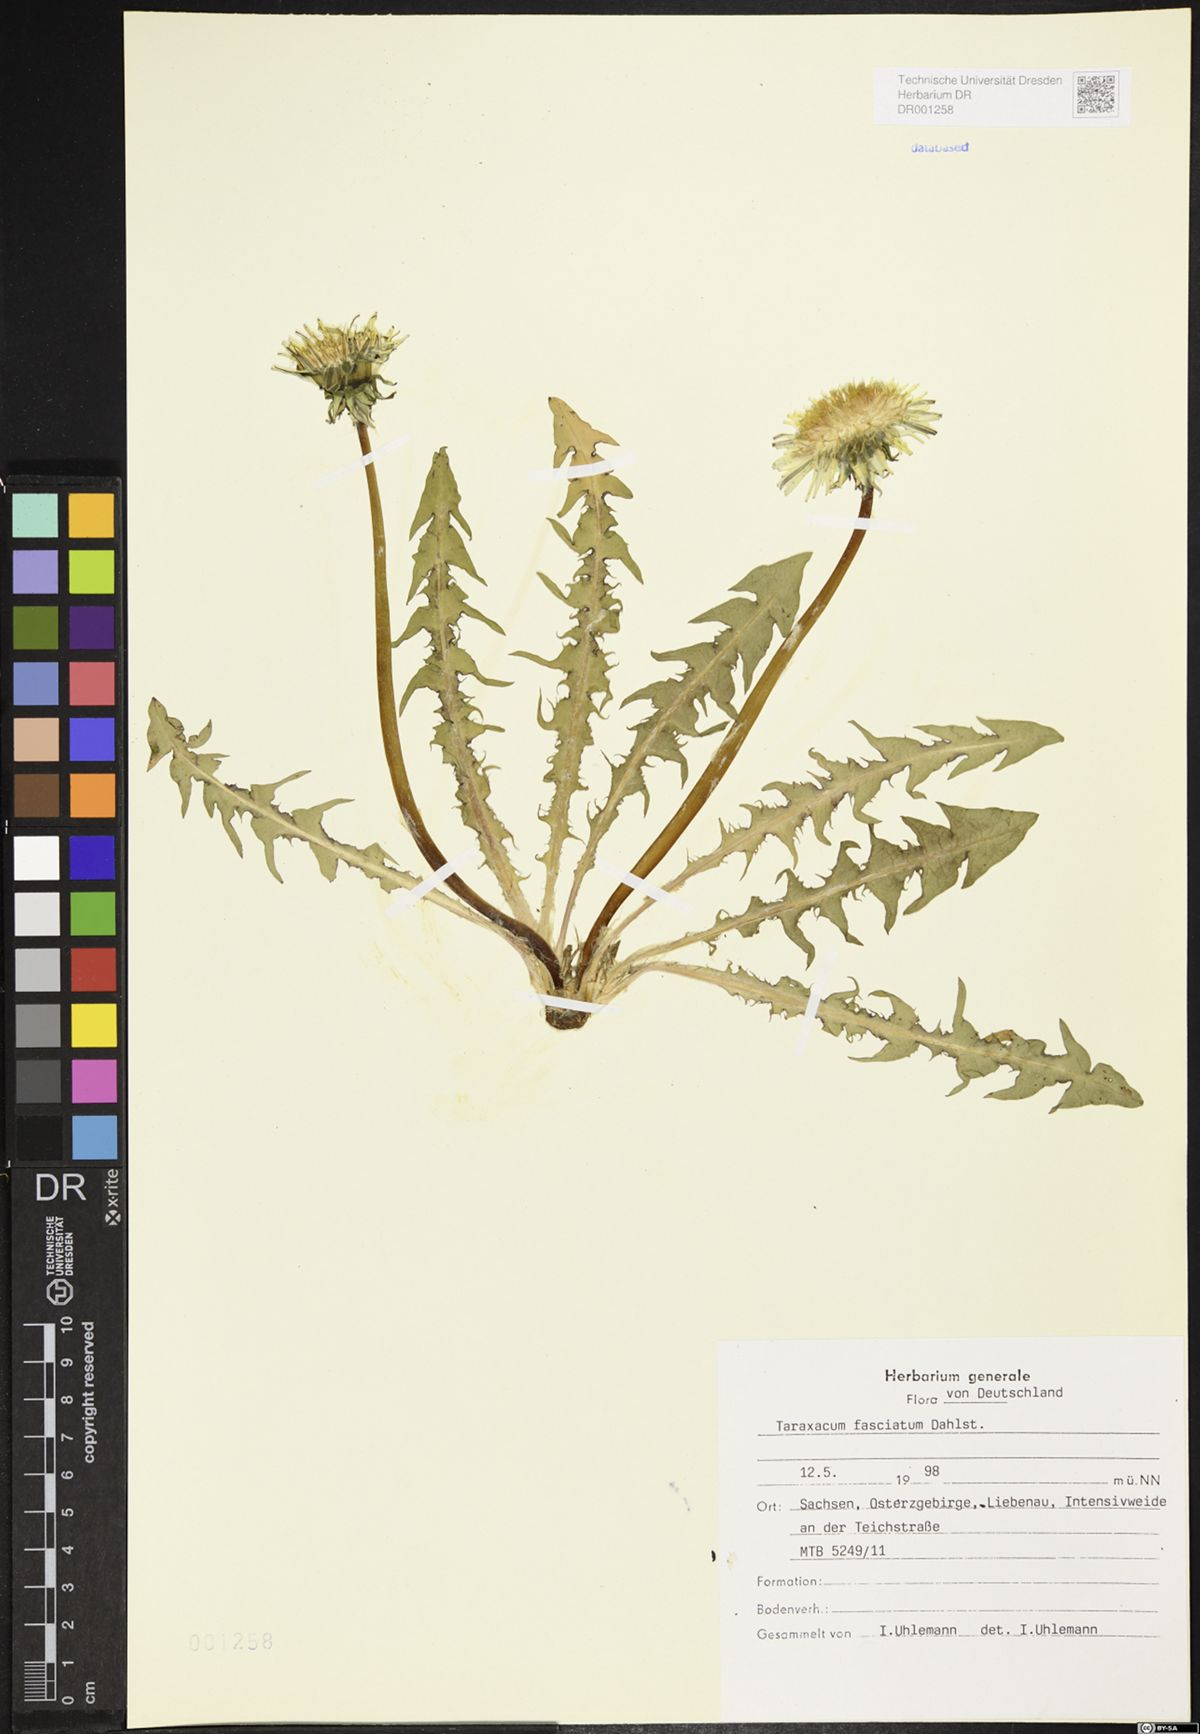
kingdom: Plantae
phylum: Tracheophyta
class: Magnoliopsida
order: Asterales
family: Asteraceae
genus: Taraxacum
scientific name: Taraxacum fasciatum
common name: Dense-bracted dandelion
